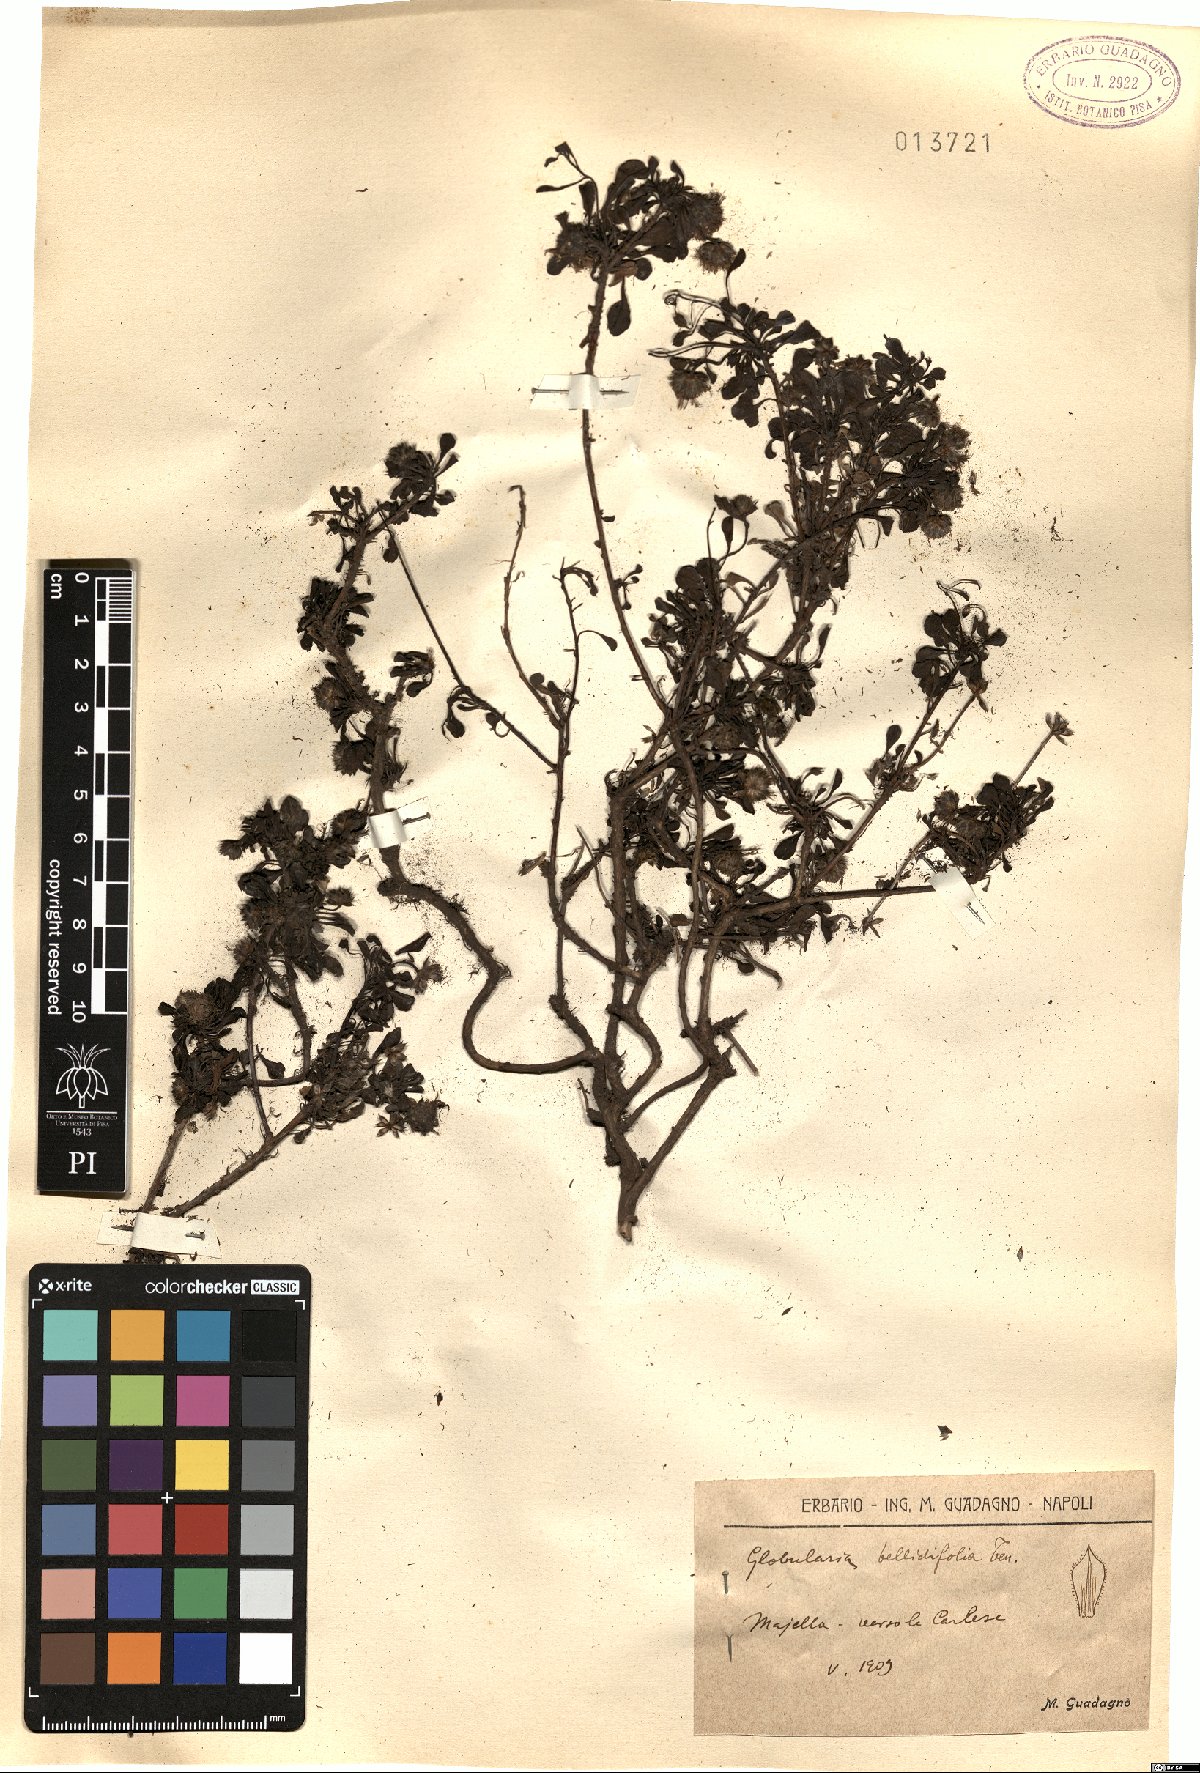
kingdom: Plantae
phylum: Tracheophyta
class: Magnoliopsida
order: Lamiales
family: Plantaginaceae
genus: Globularia
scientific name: Globularia meridionalis
